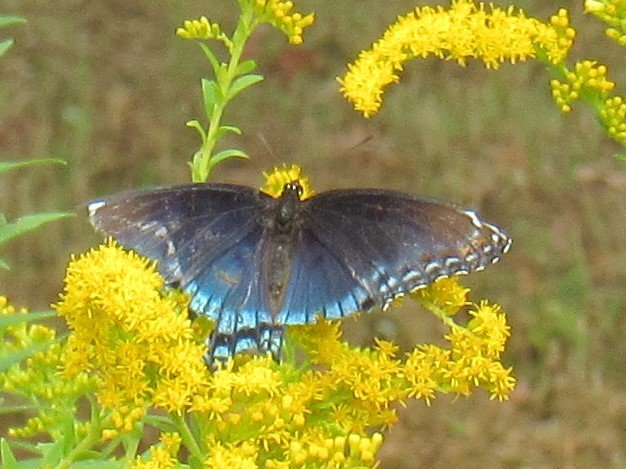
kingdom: Animalia
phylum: Arthropoda
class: Insecta
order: Lepidoptera
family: Nymphalidae
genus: Limenitis
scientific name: Limenitis astyanax
